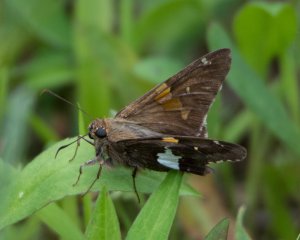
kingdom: Animalia
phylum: Arthropoda
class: Insecta
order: Lepidoptera
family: Hesperiidae
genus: Epargyreus
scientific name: Epargyreus clarus
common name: Silver-spotted Skipper
